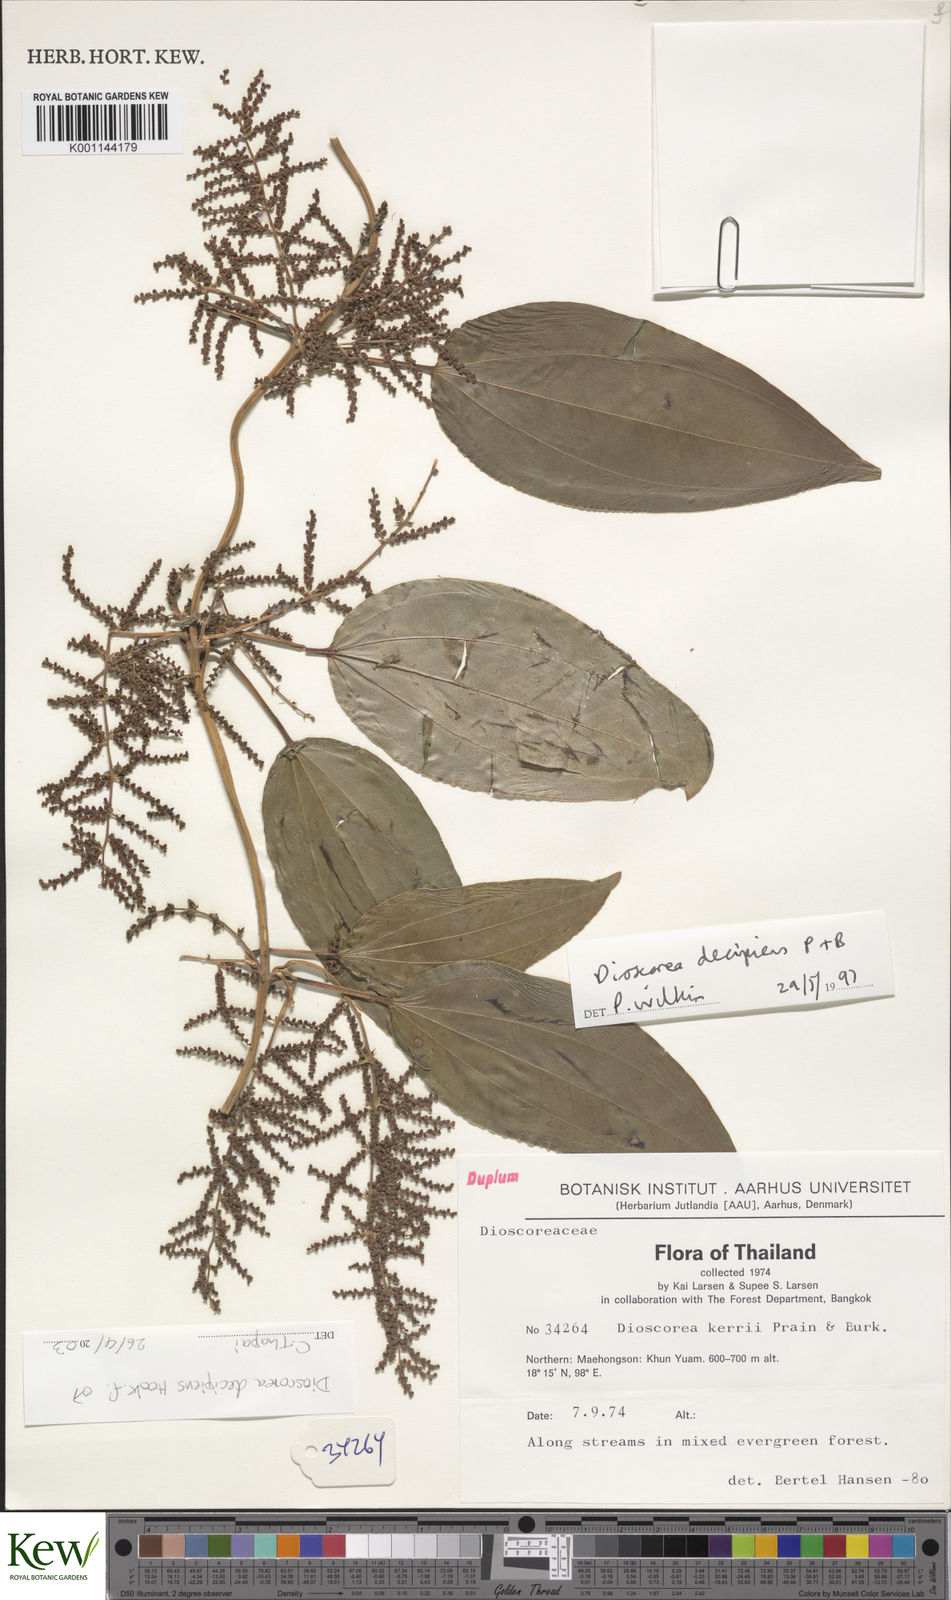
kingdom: Plantae
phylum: Tracheophyta
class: Liliopsida
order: Dioscoreales
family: Dioscoreaceae
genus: Dioscorea
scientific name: Dioscorea decipiens
